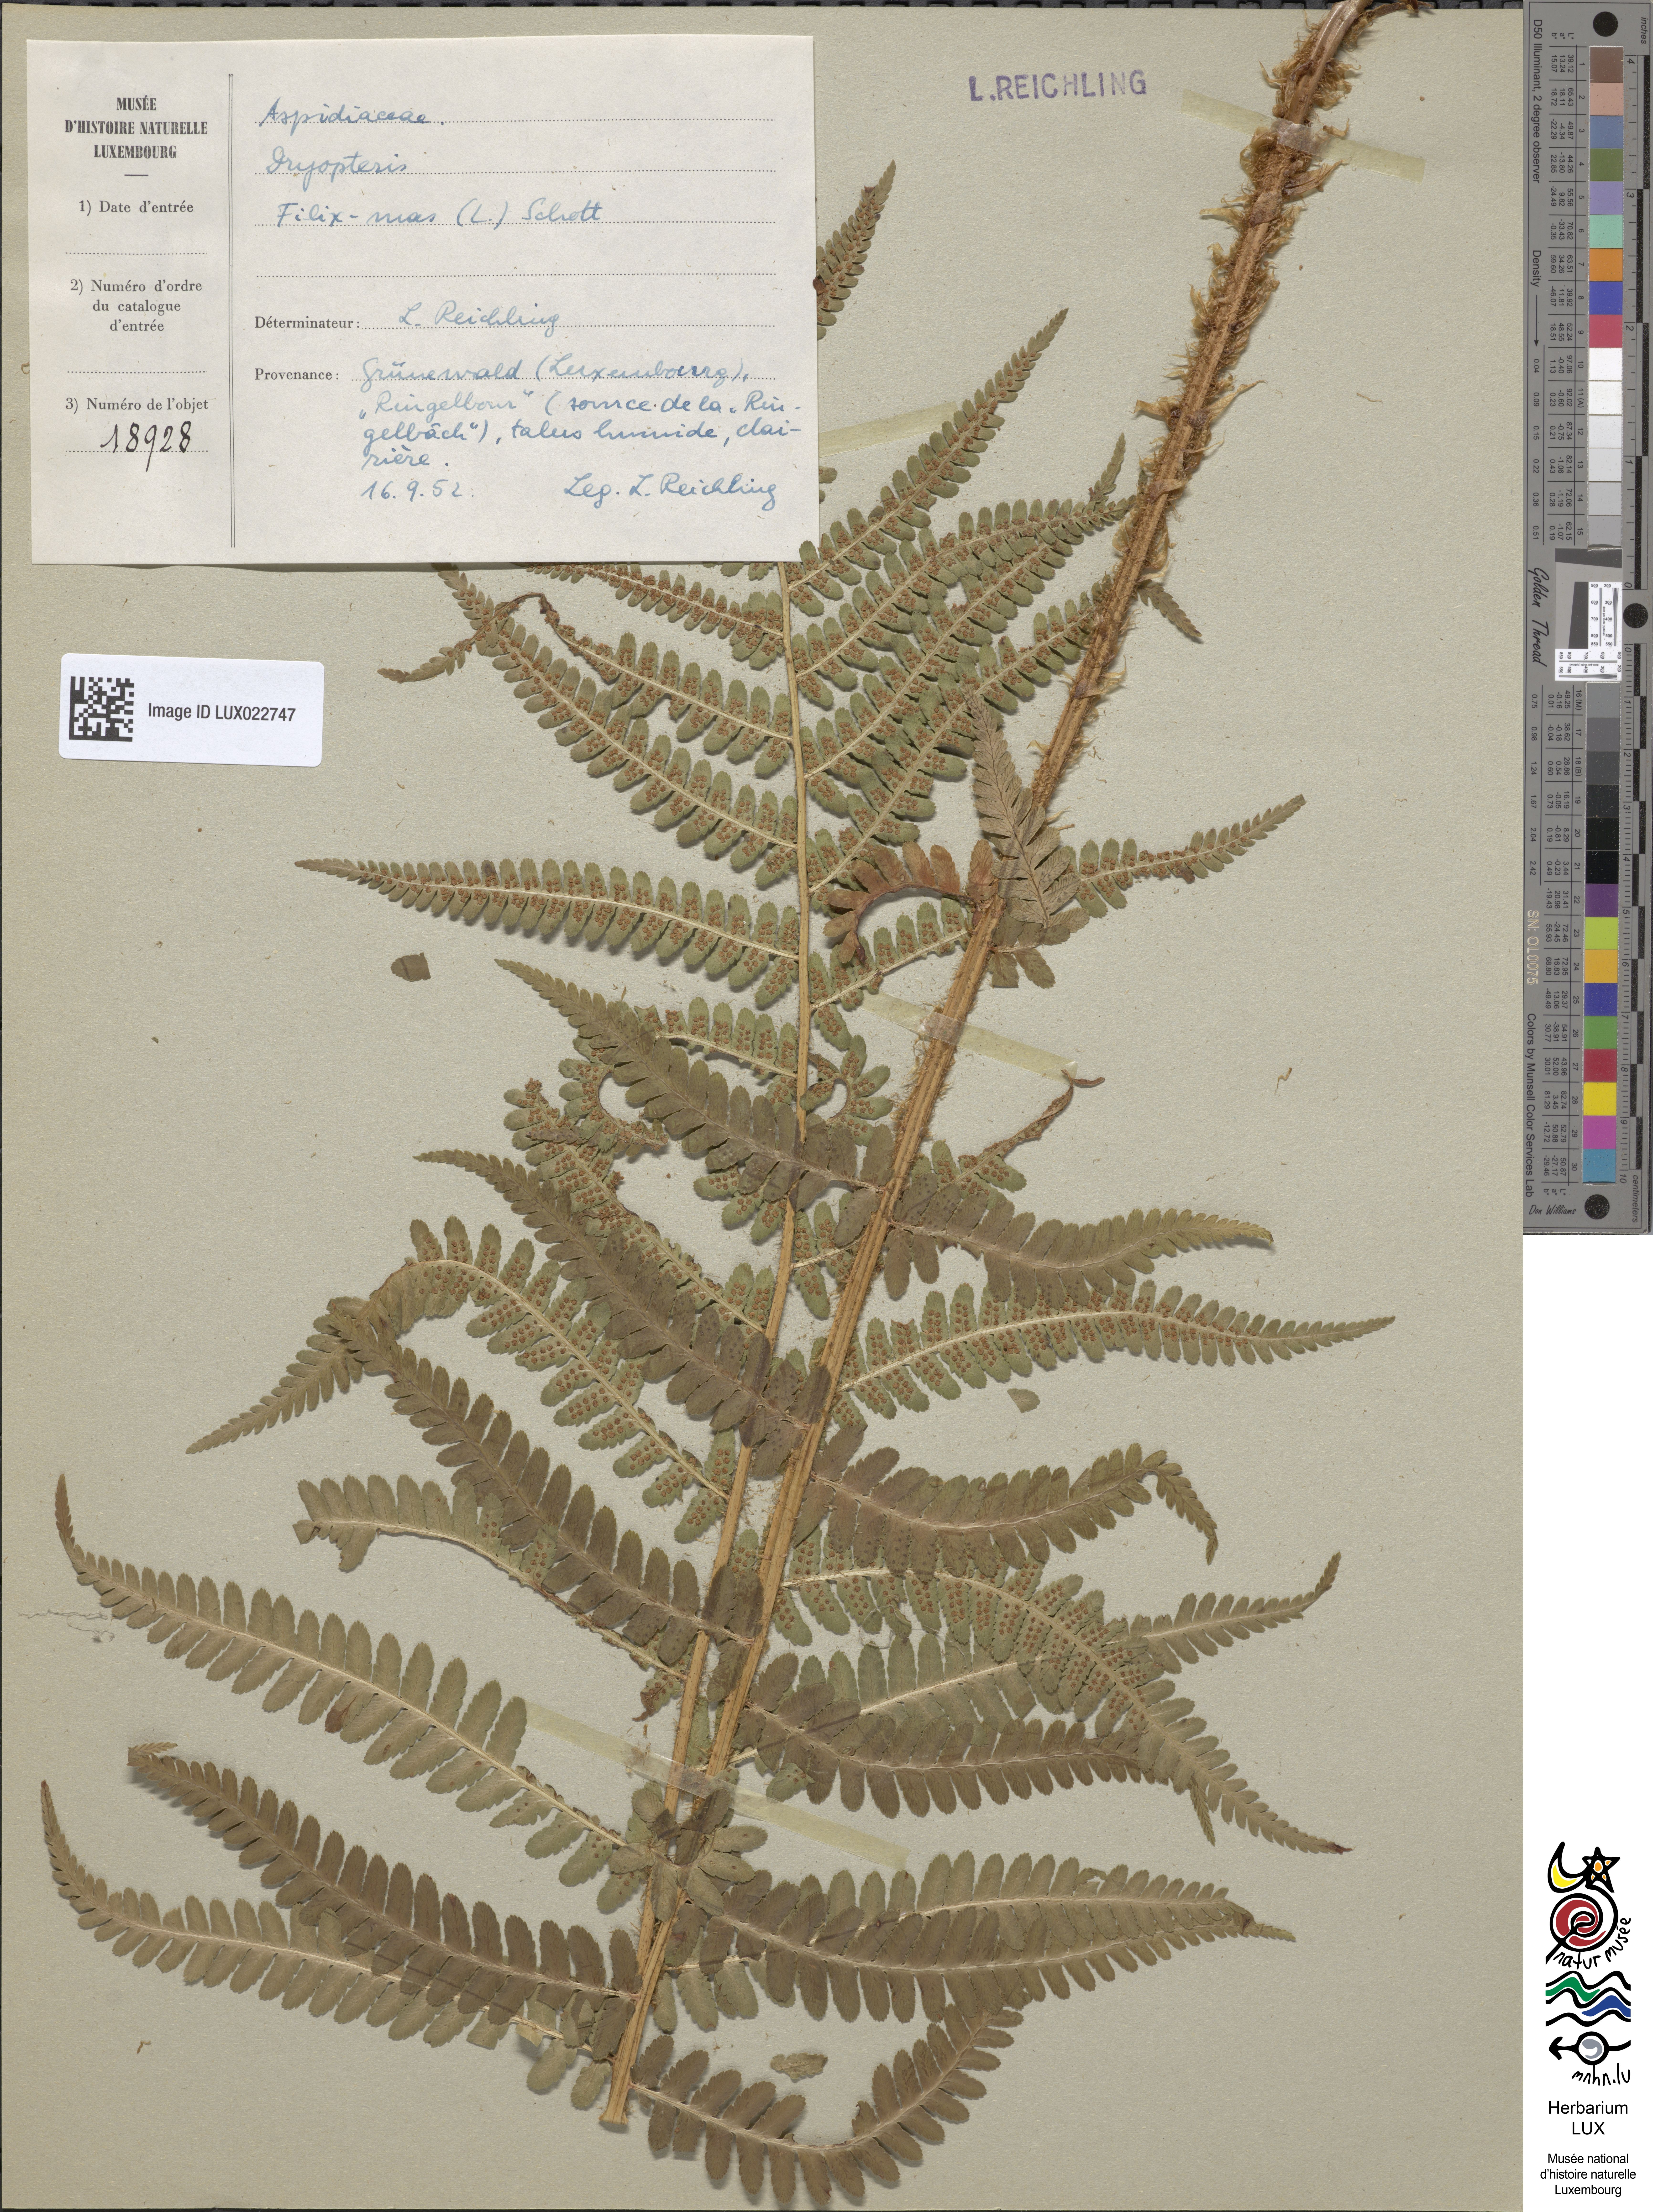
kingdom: Plantae
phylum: Tracheophyta
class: Polypodiopsida
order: Polypodiales
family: Dryopteridaceae
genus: Dryopteris
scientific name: Dryopteris filix-mas
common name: Male fern
